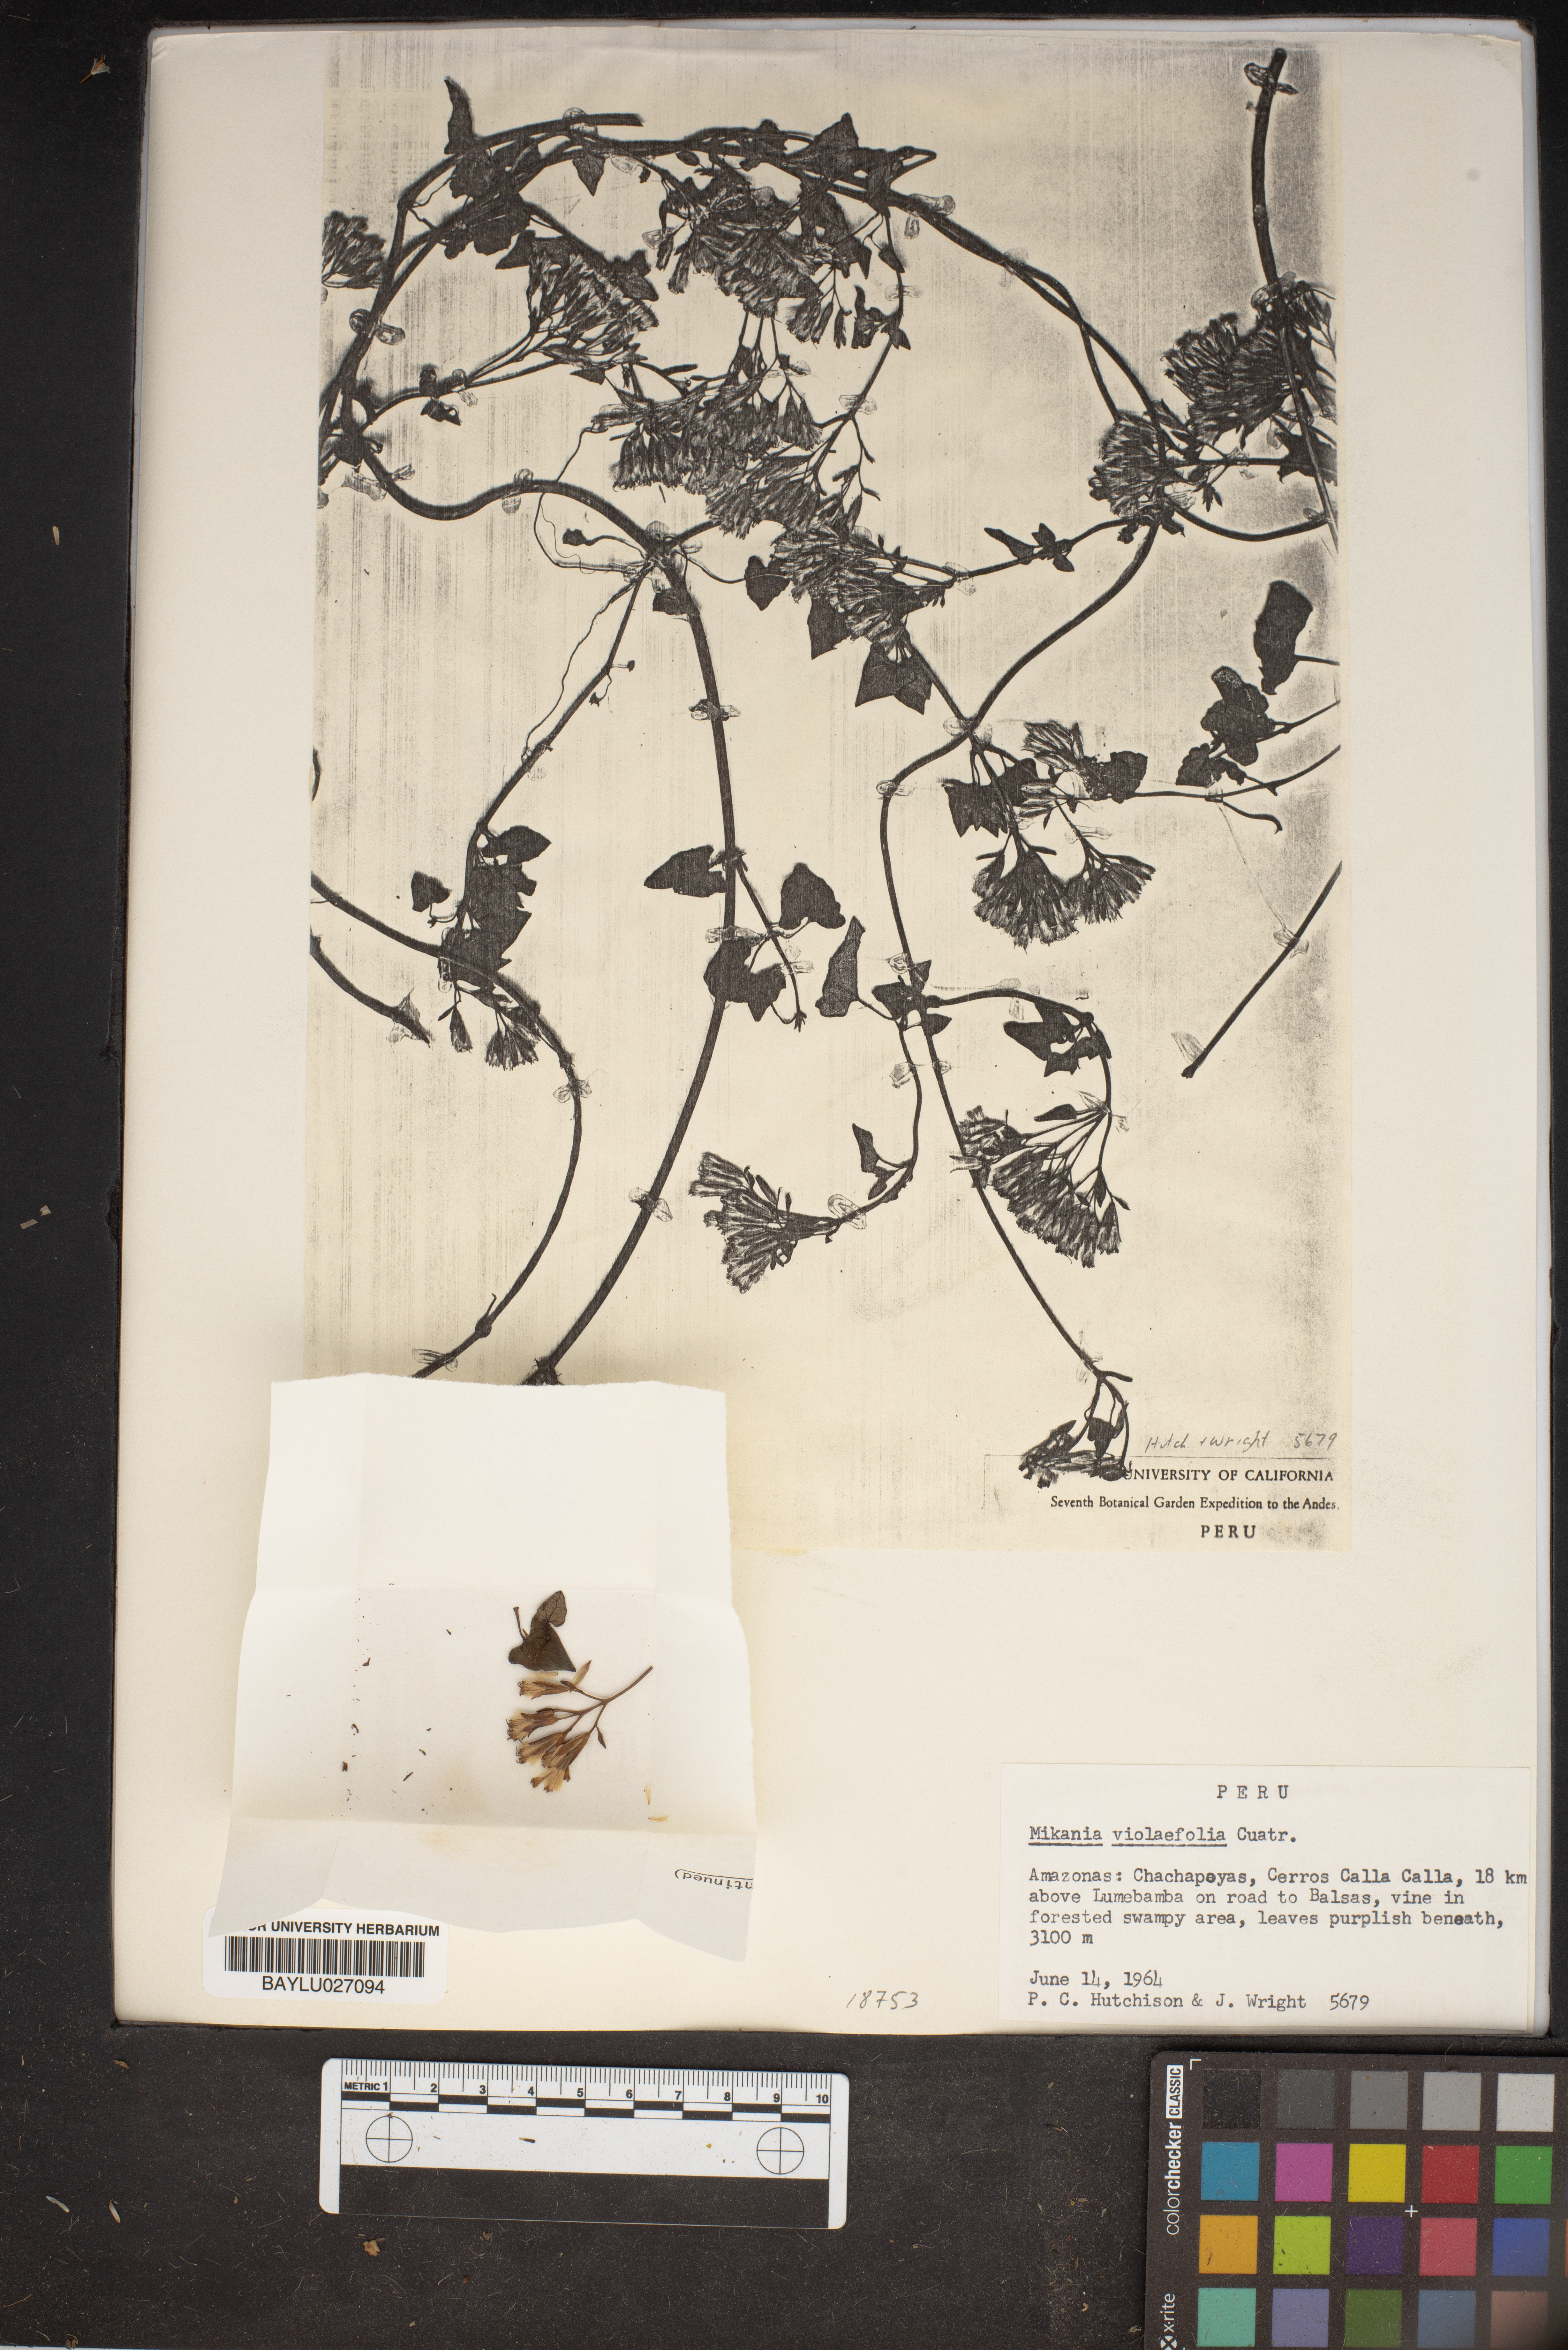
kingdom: Plantae
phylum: Tracheophyta
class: Magnoliopsida
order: Asterales
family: Asteraceae
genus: Mikania
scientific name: Mikania violaefolia
